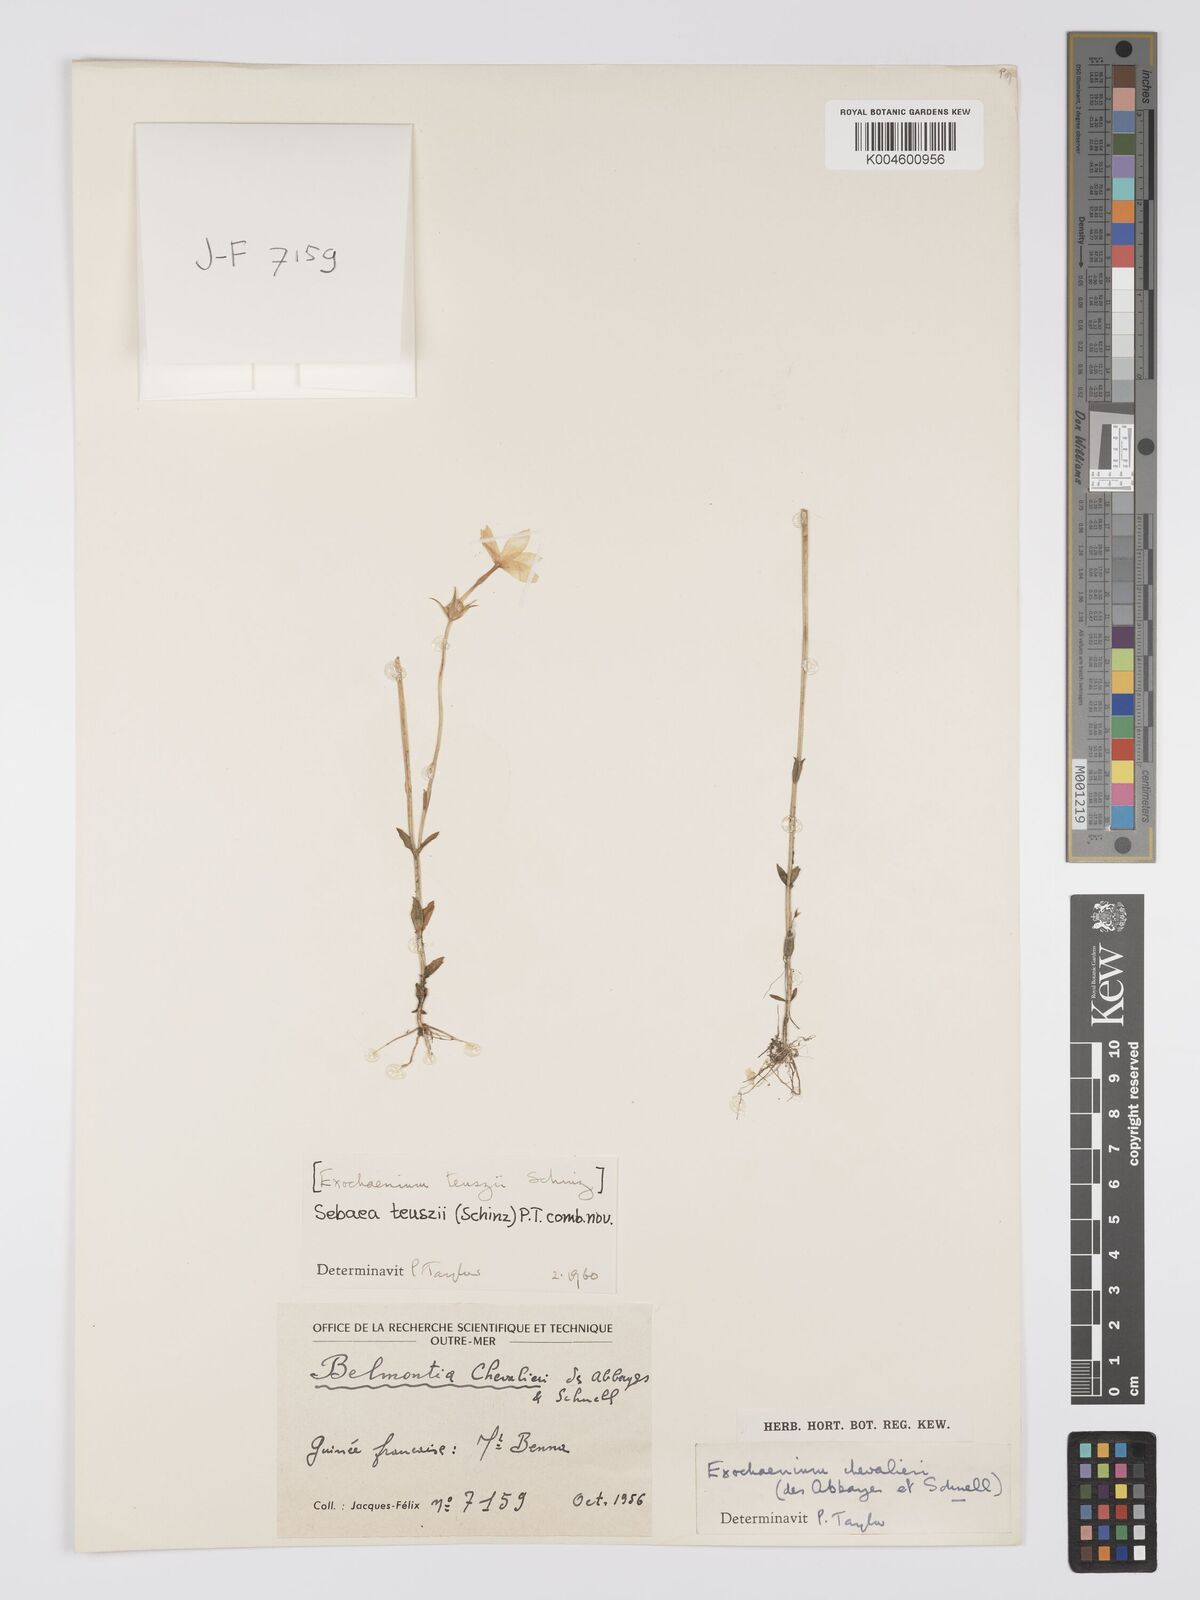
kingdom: Plantae
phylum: Tracheophyta
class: Magnoliopsida
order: Gentianales
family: Gentianaceae
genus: Exochaenium
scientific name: Exochaenium teuszii
